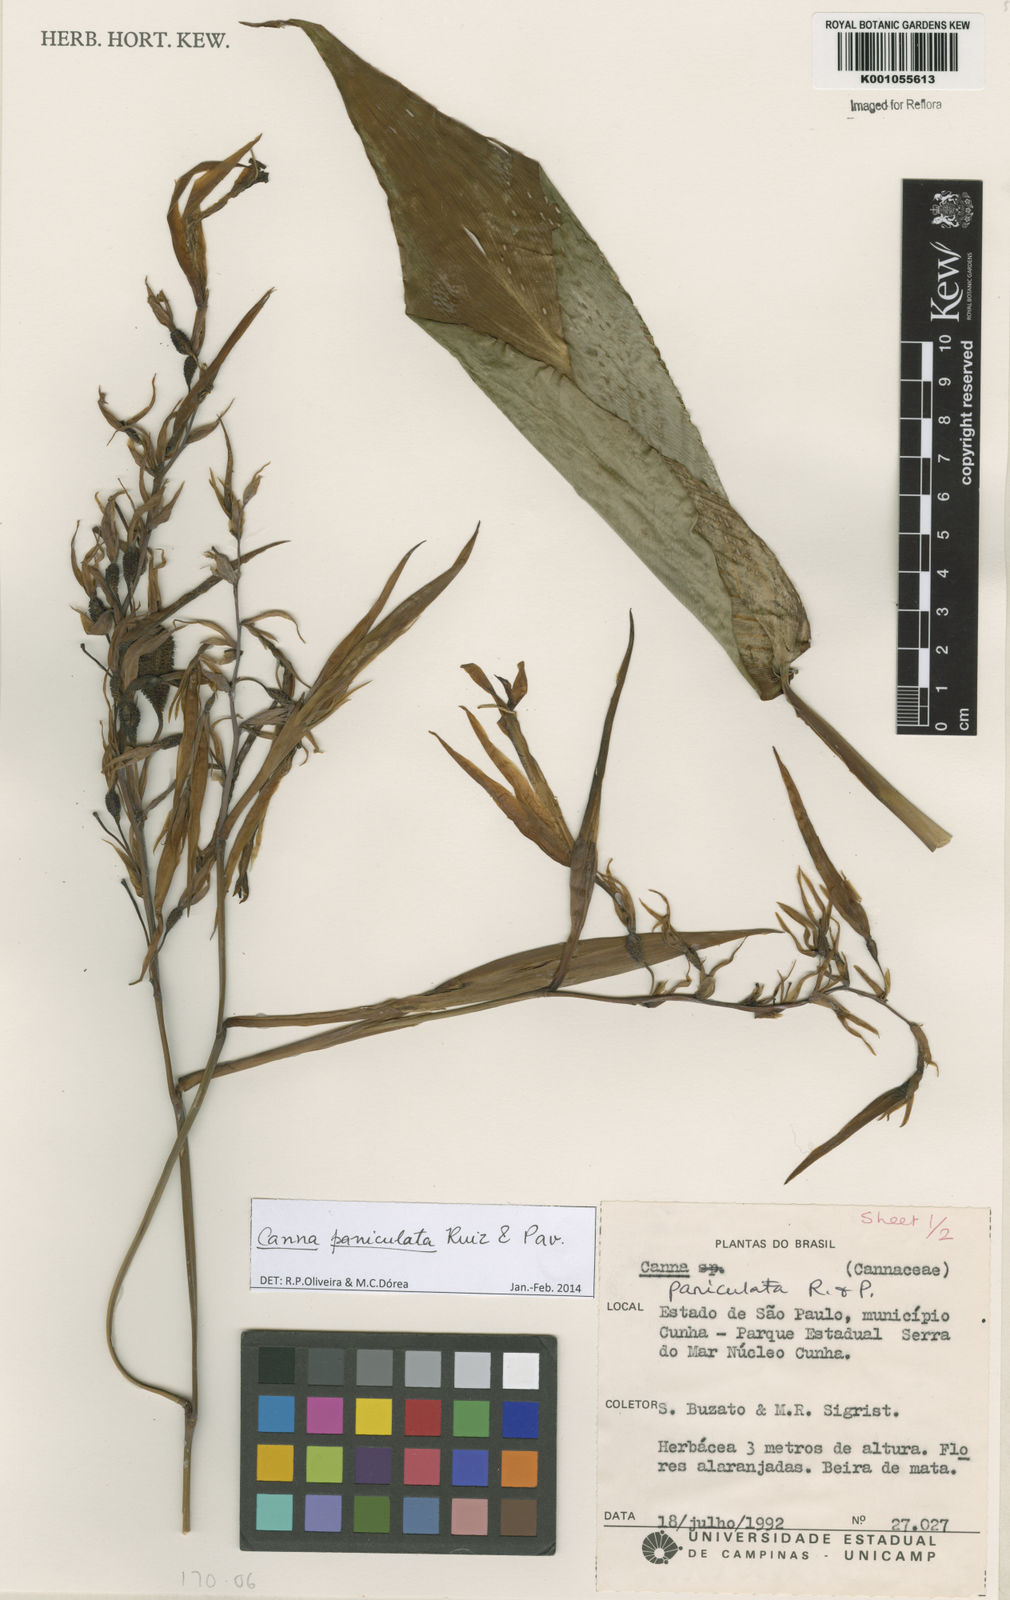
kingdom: Plantae
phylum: Tracheophyta
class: Liliopsida
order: Zingiberales
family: Cannaceae
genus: Canna
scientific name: Canna paniculata
